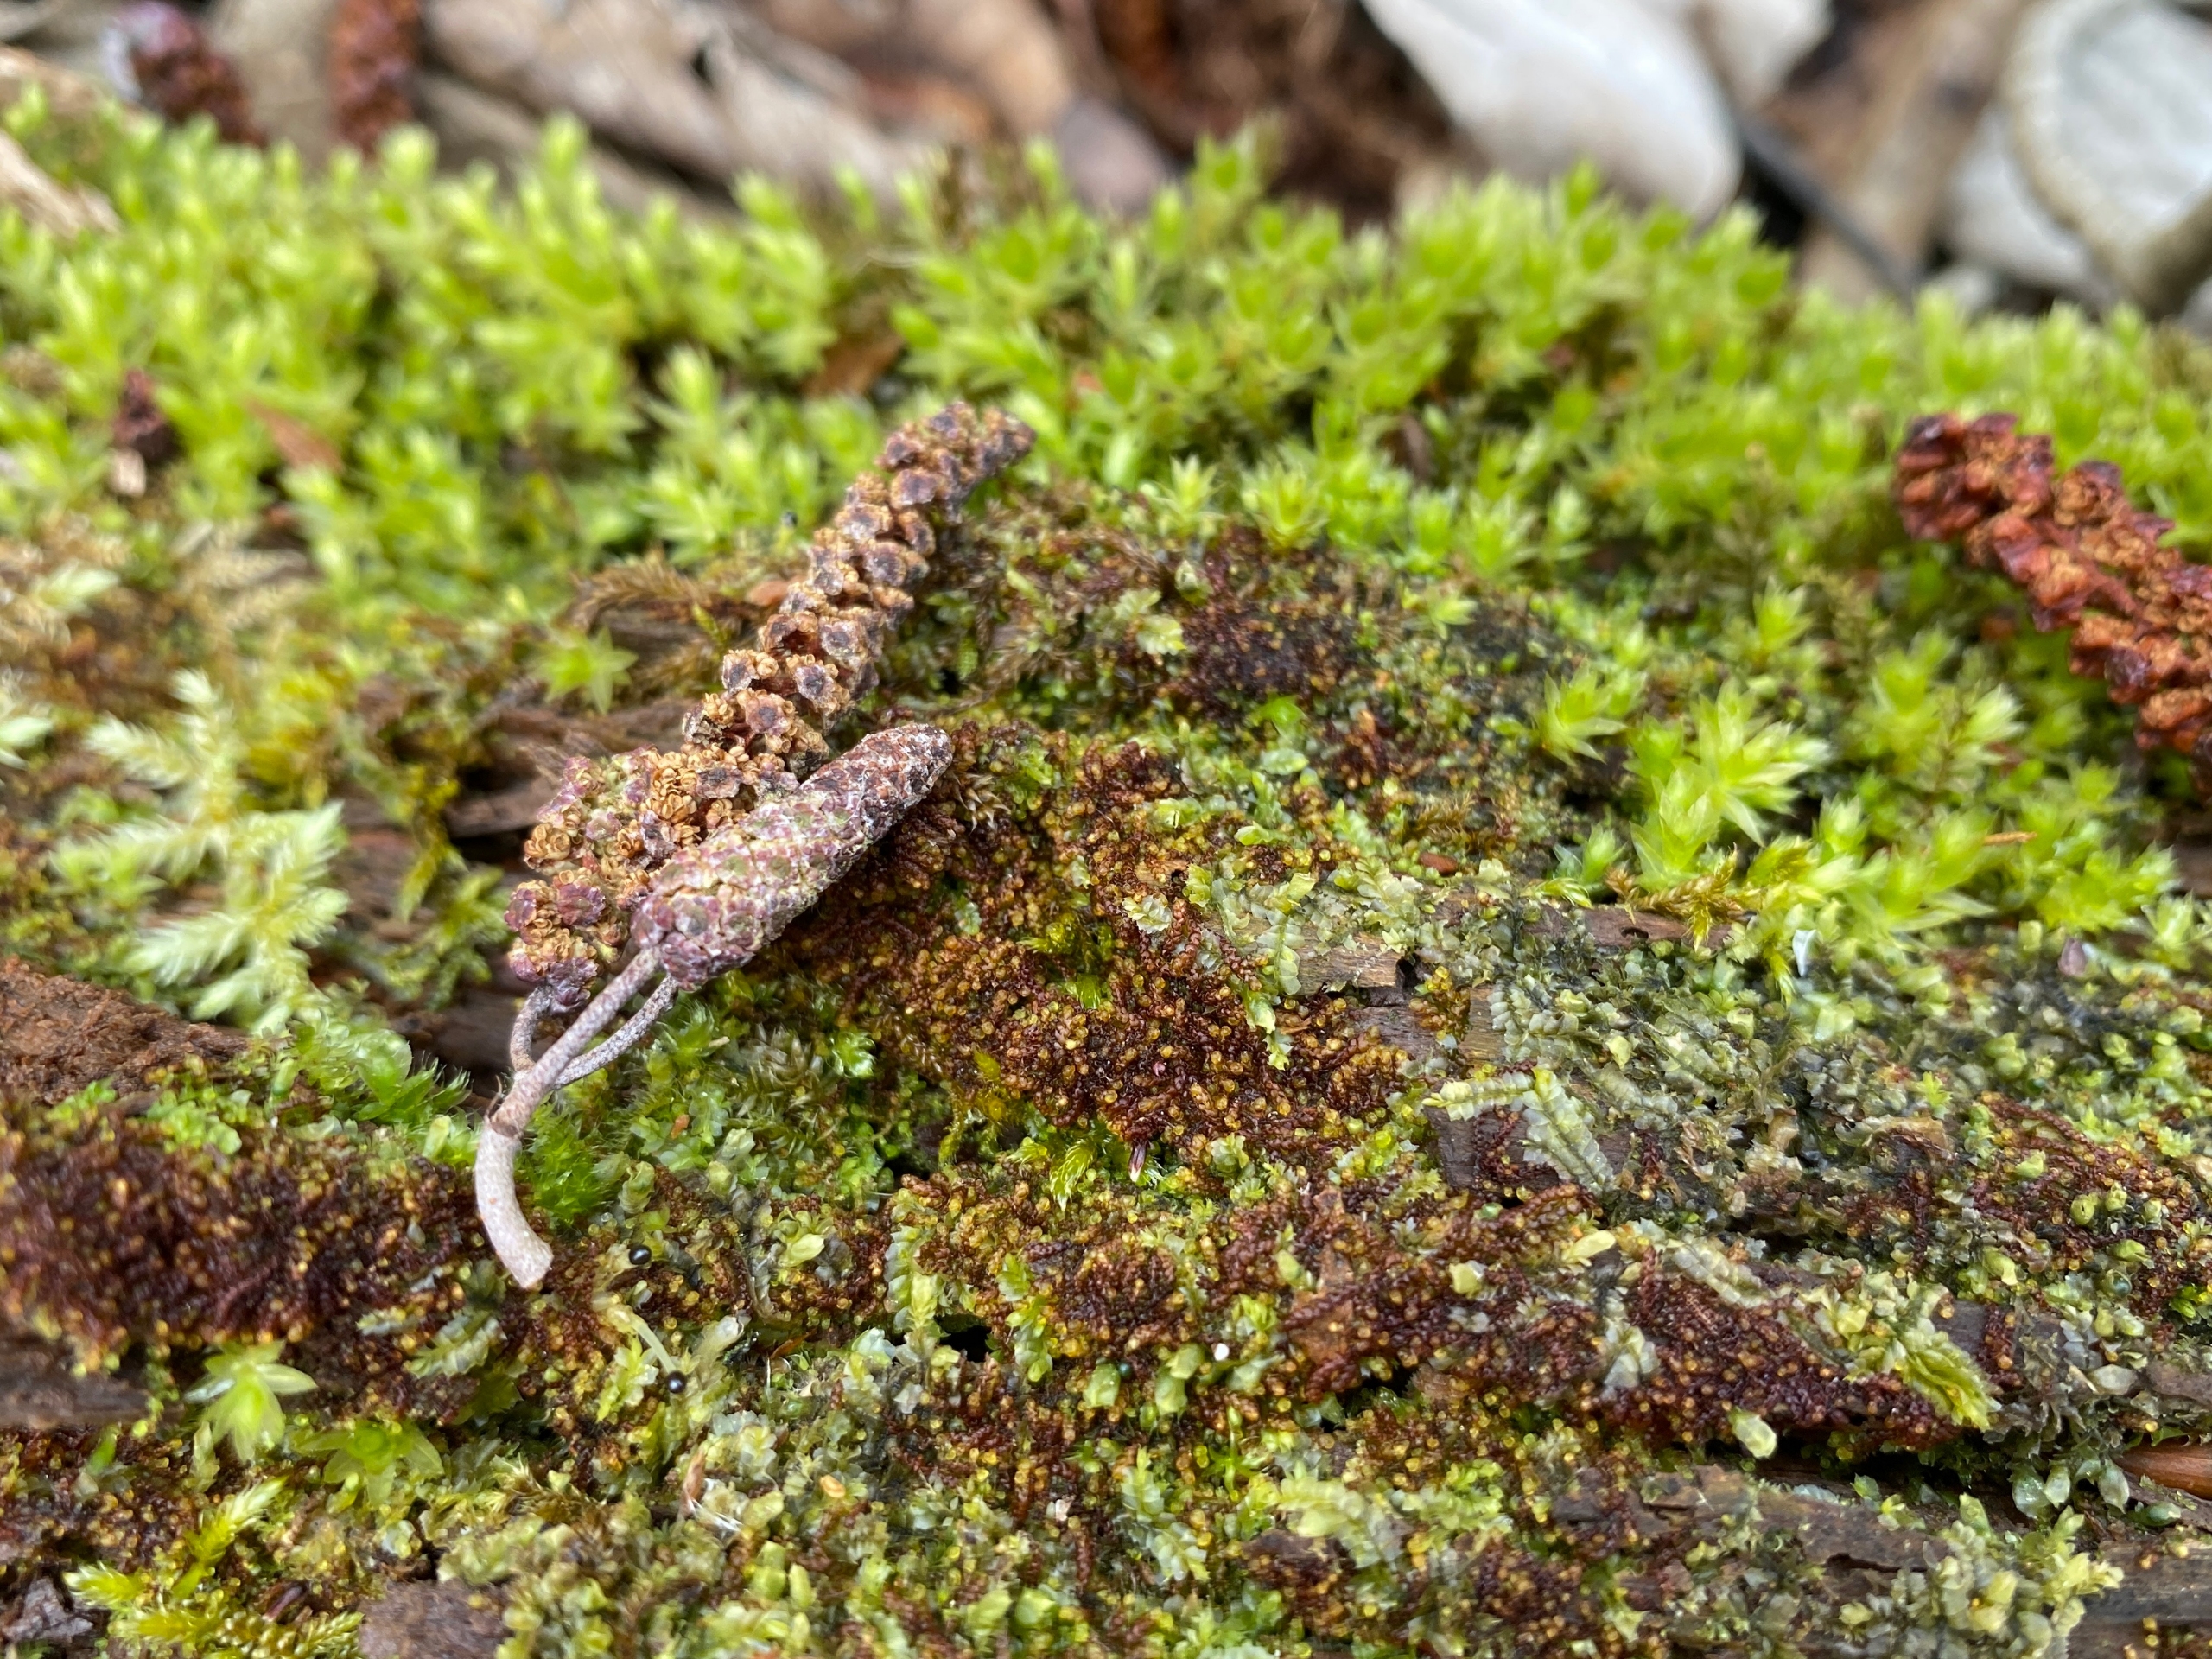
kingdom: Plantae
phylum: Marchantiophyta
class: Jungermanniopsida
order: Jungermanniales
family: Cephaloziaceae
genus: Nowellia
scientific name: Nowellia curvifolia
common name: Krumbladet stødmos
